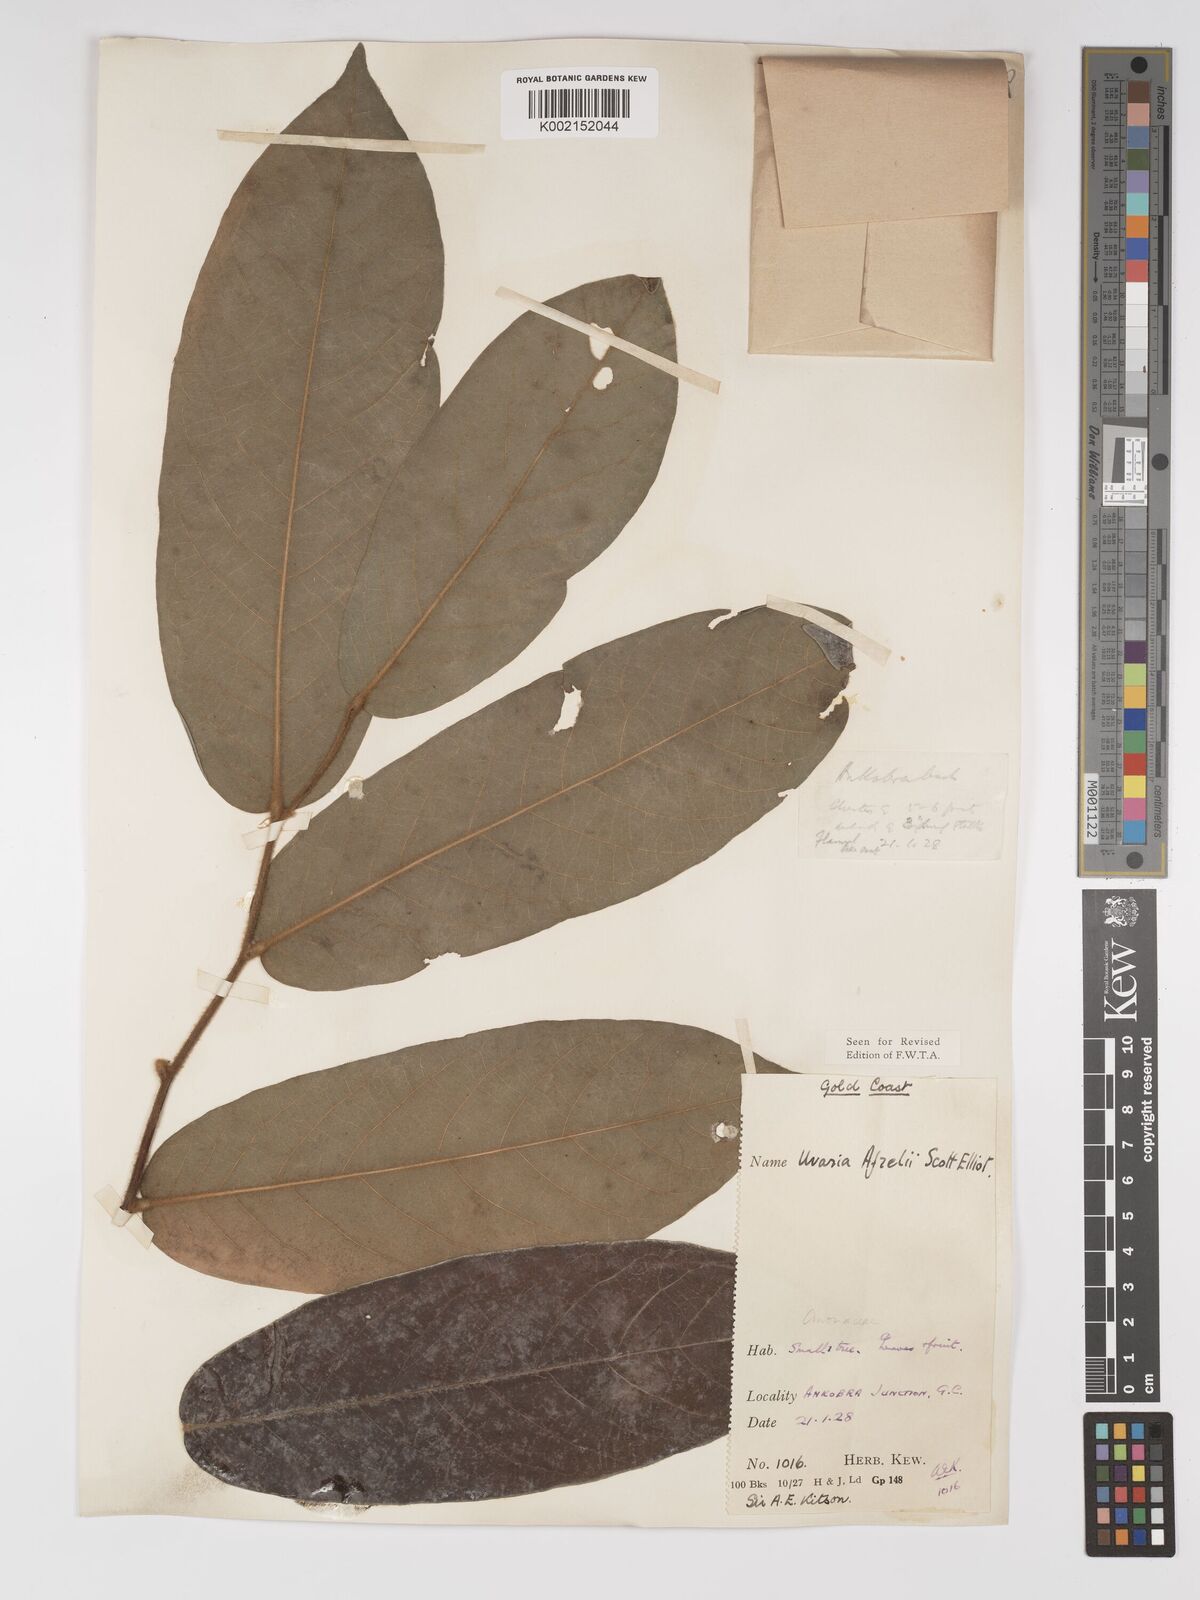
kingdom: Plantae
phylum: Tracheophyta
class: Magnoliopsida
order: Magnoliales
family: Annonaceae
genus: Uvaria
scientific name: Uvaria afzelii
